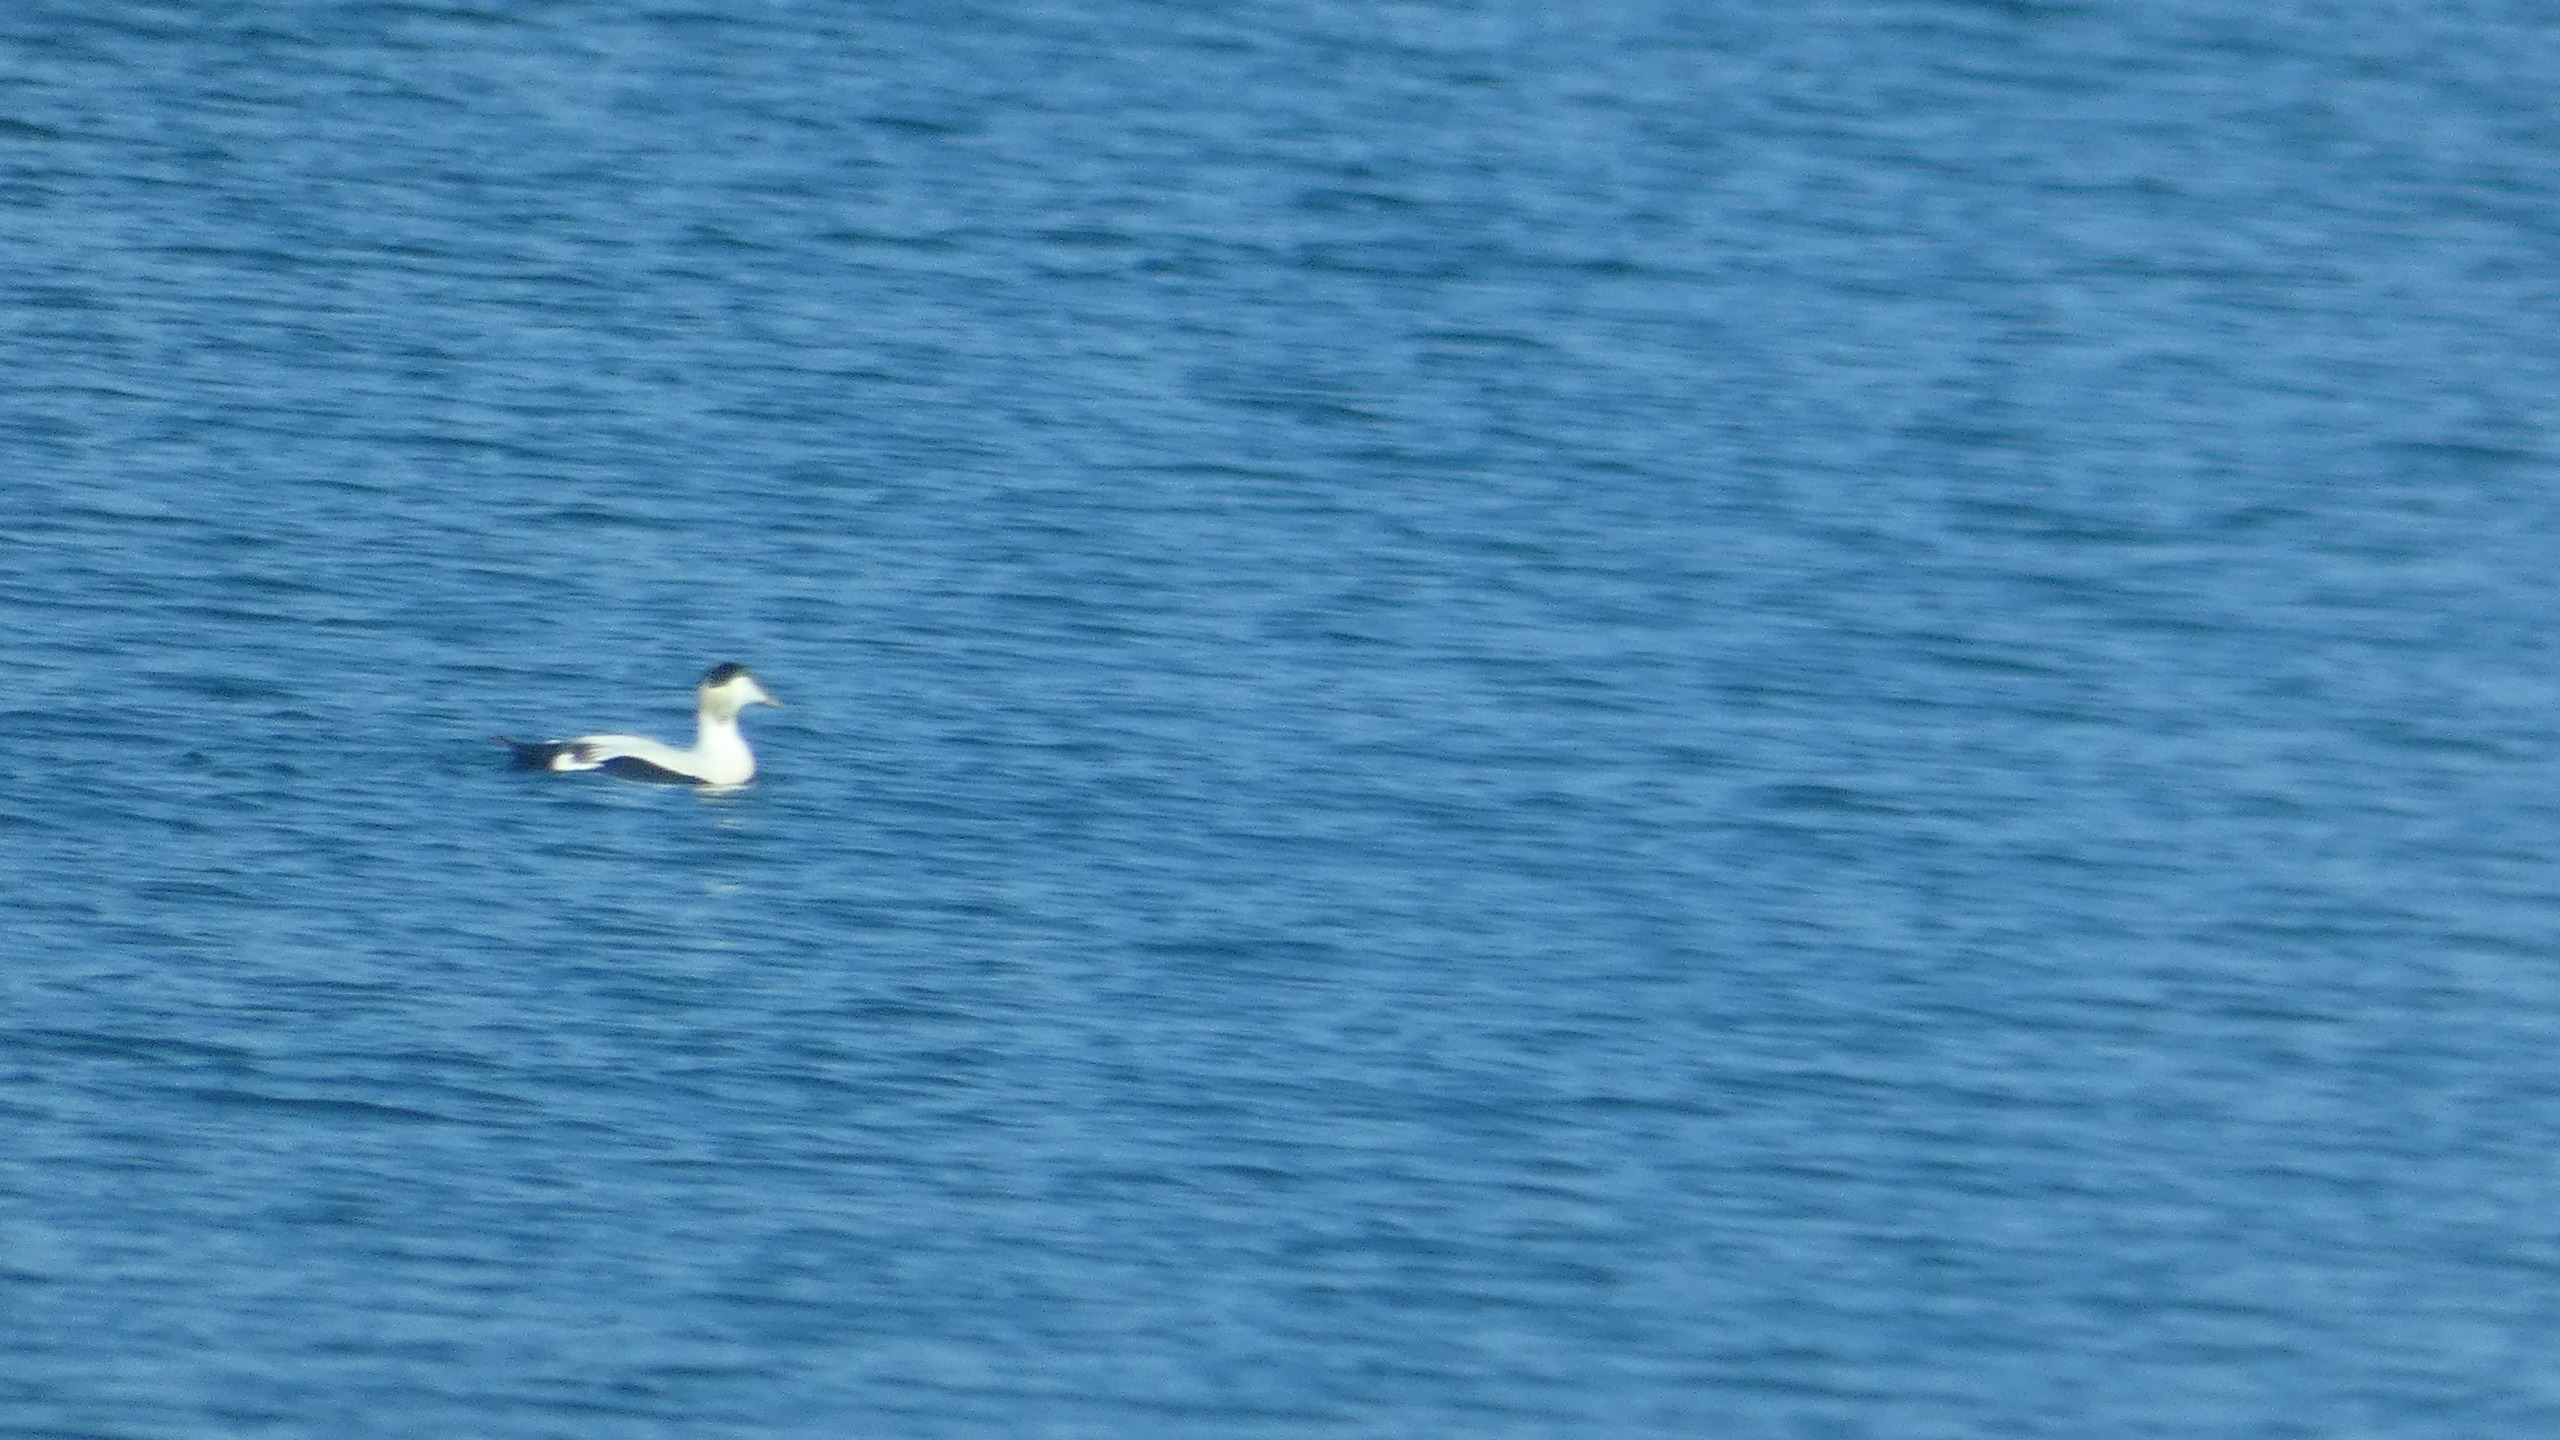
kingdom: Animalia
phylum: Chordata
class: Aves
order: Anseriformes
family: Anatidae
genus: Somateria
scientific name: Somateria mollissima
